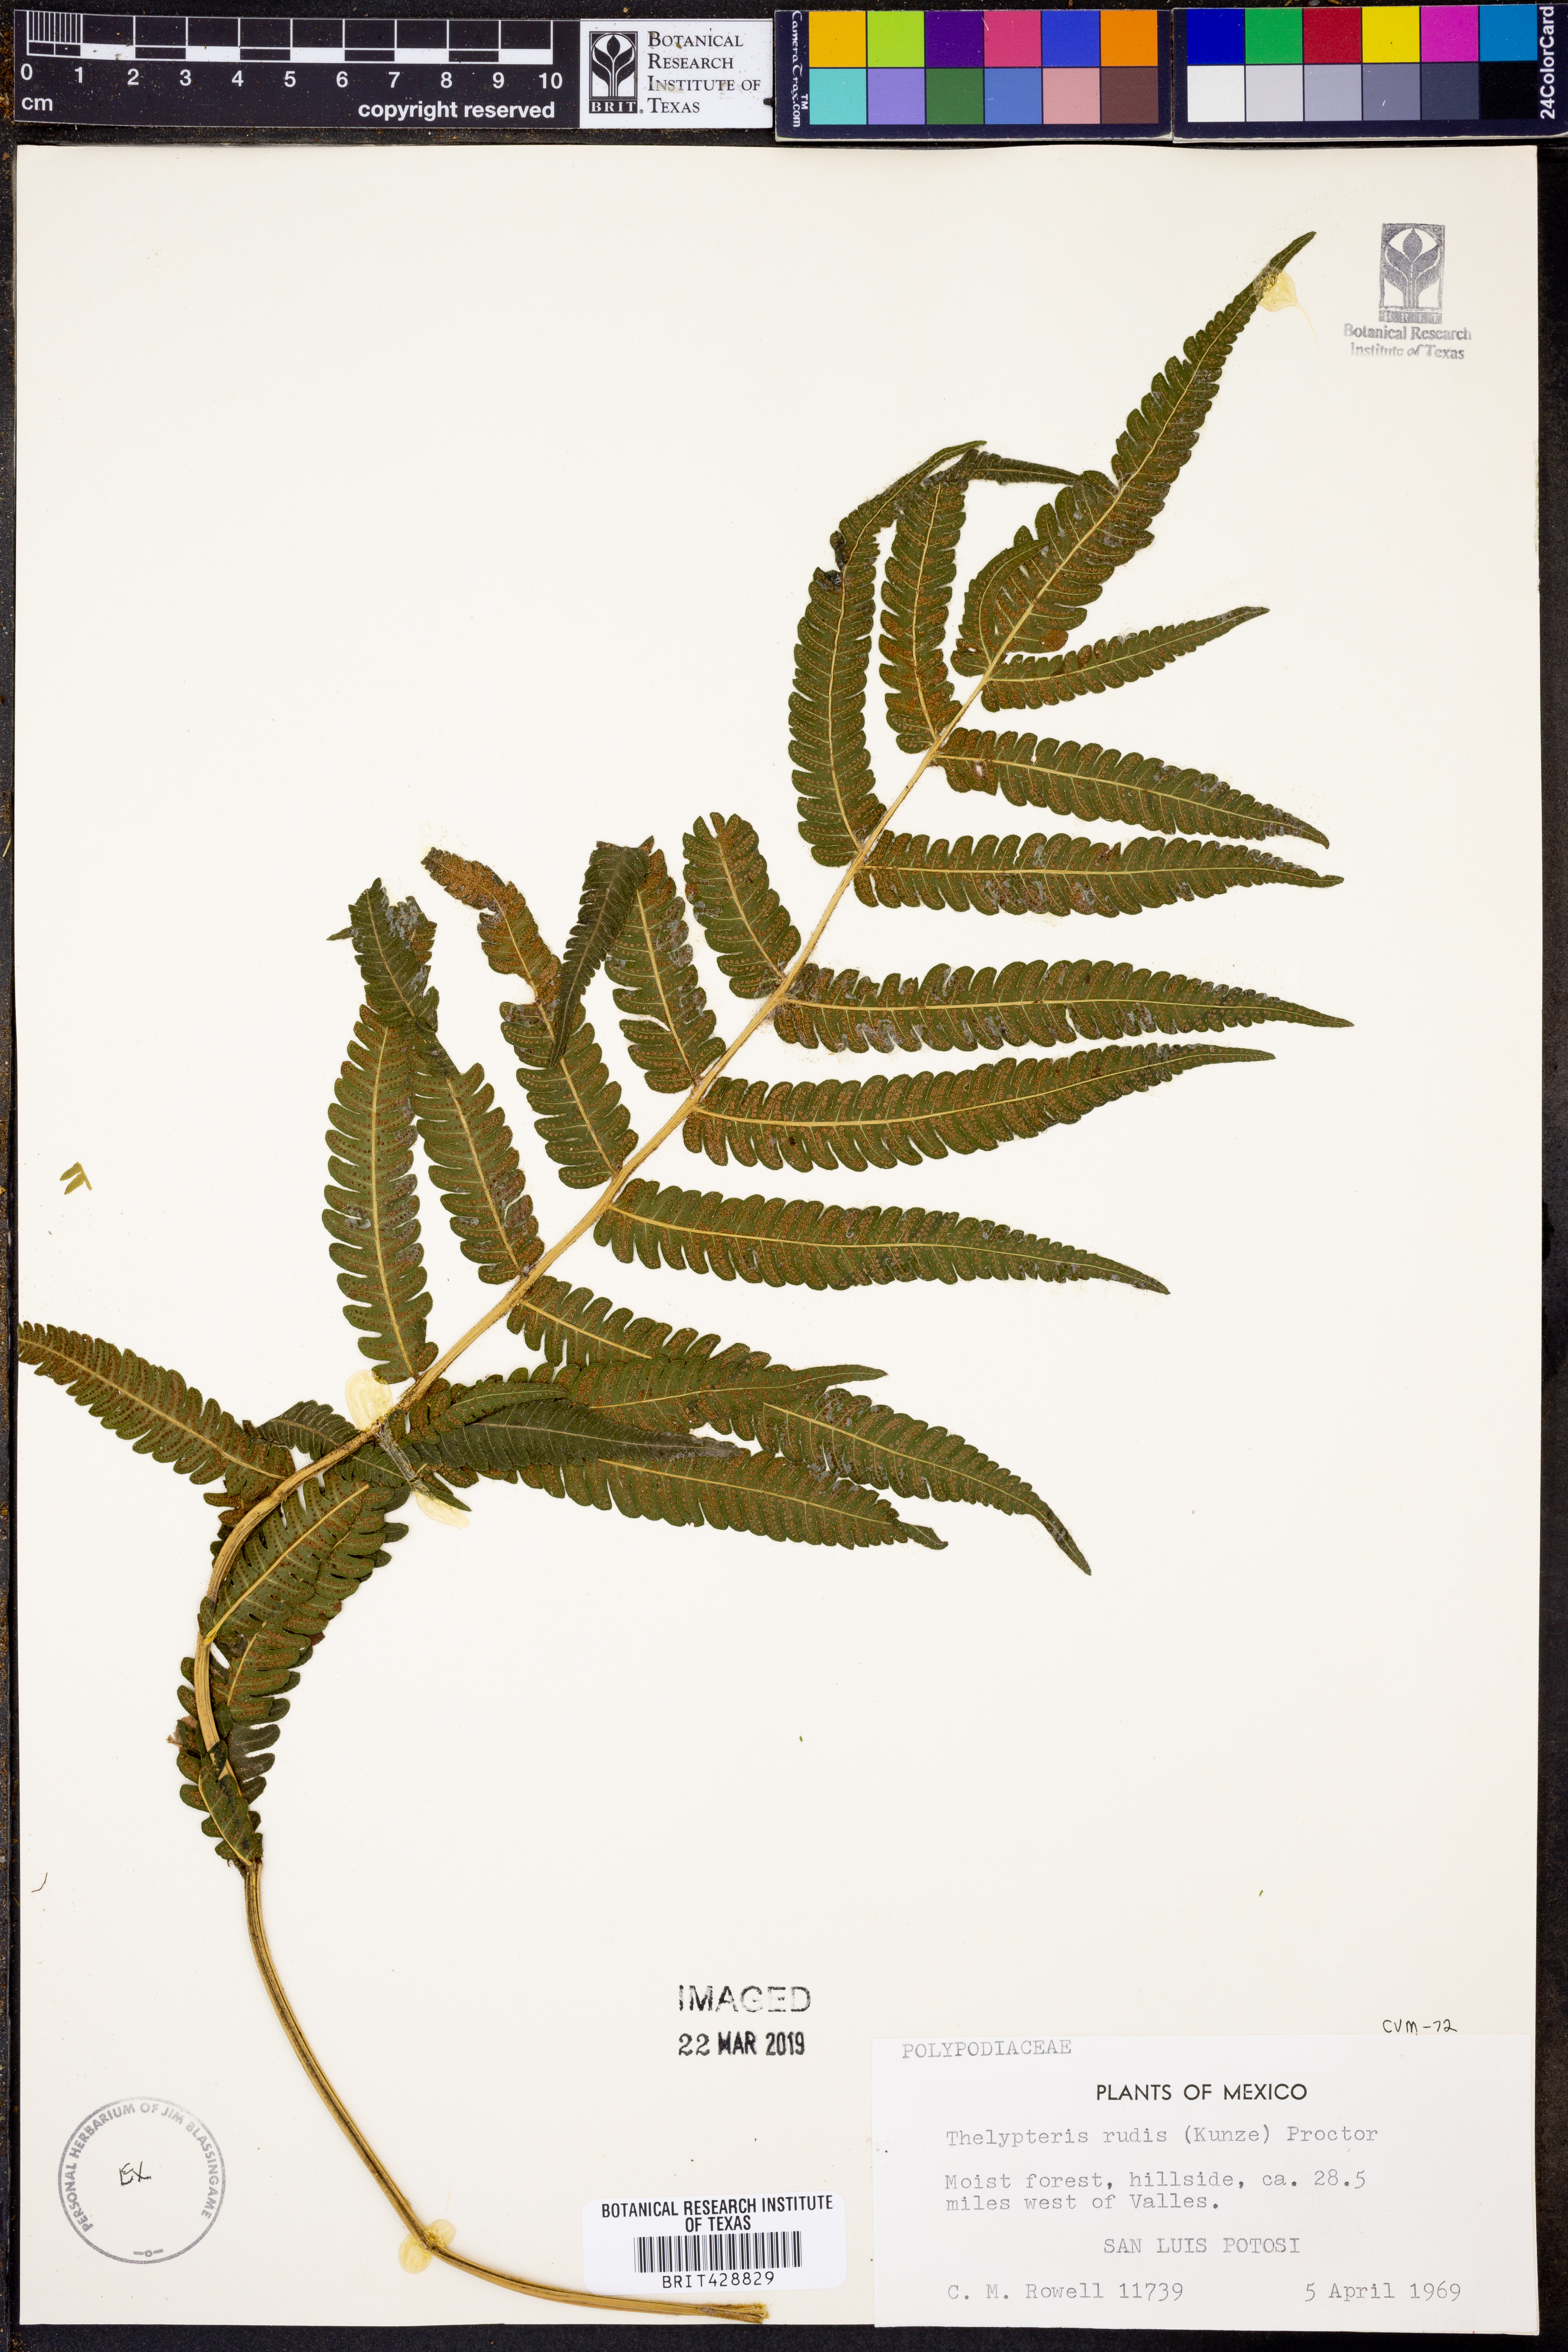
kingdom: Plantae
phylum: Tracheophyta
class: Polypodiopsida
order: Polypodiales
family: Thelypteridaceae
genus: Amauropelta
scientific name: Amauropelta rudis
